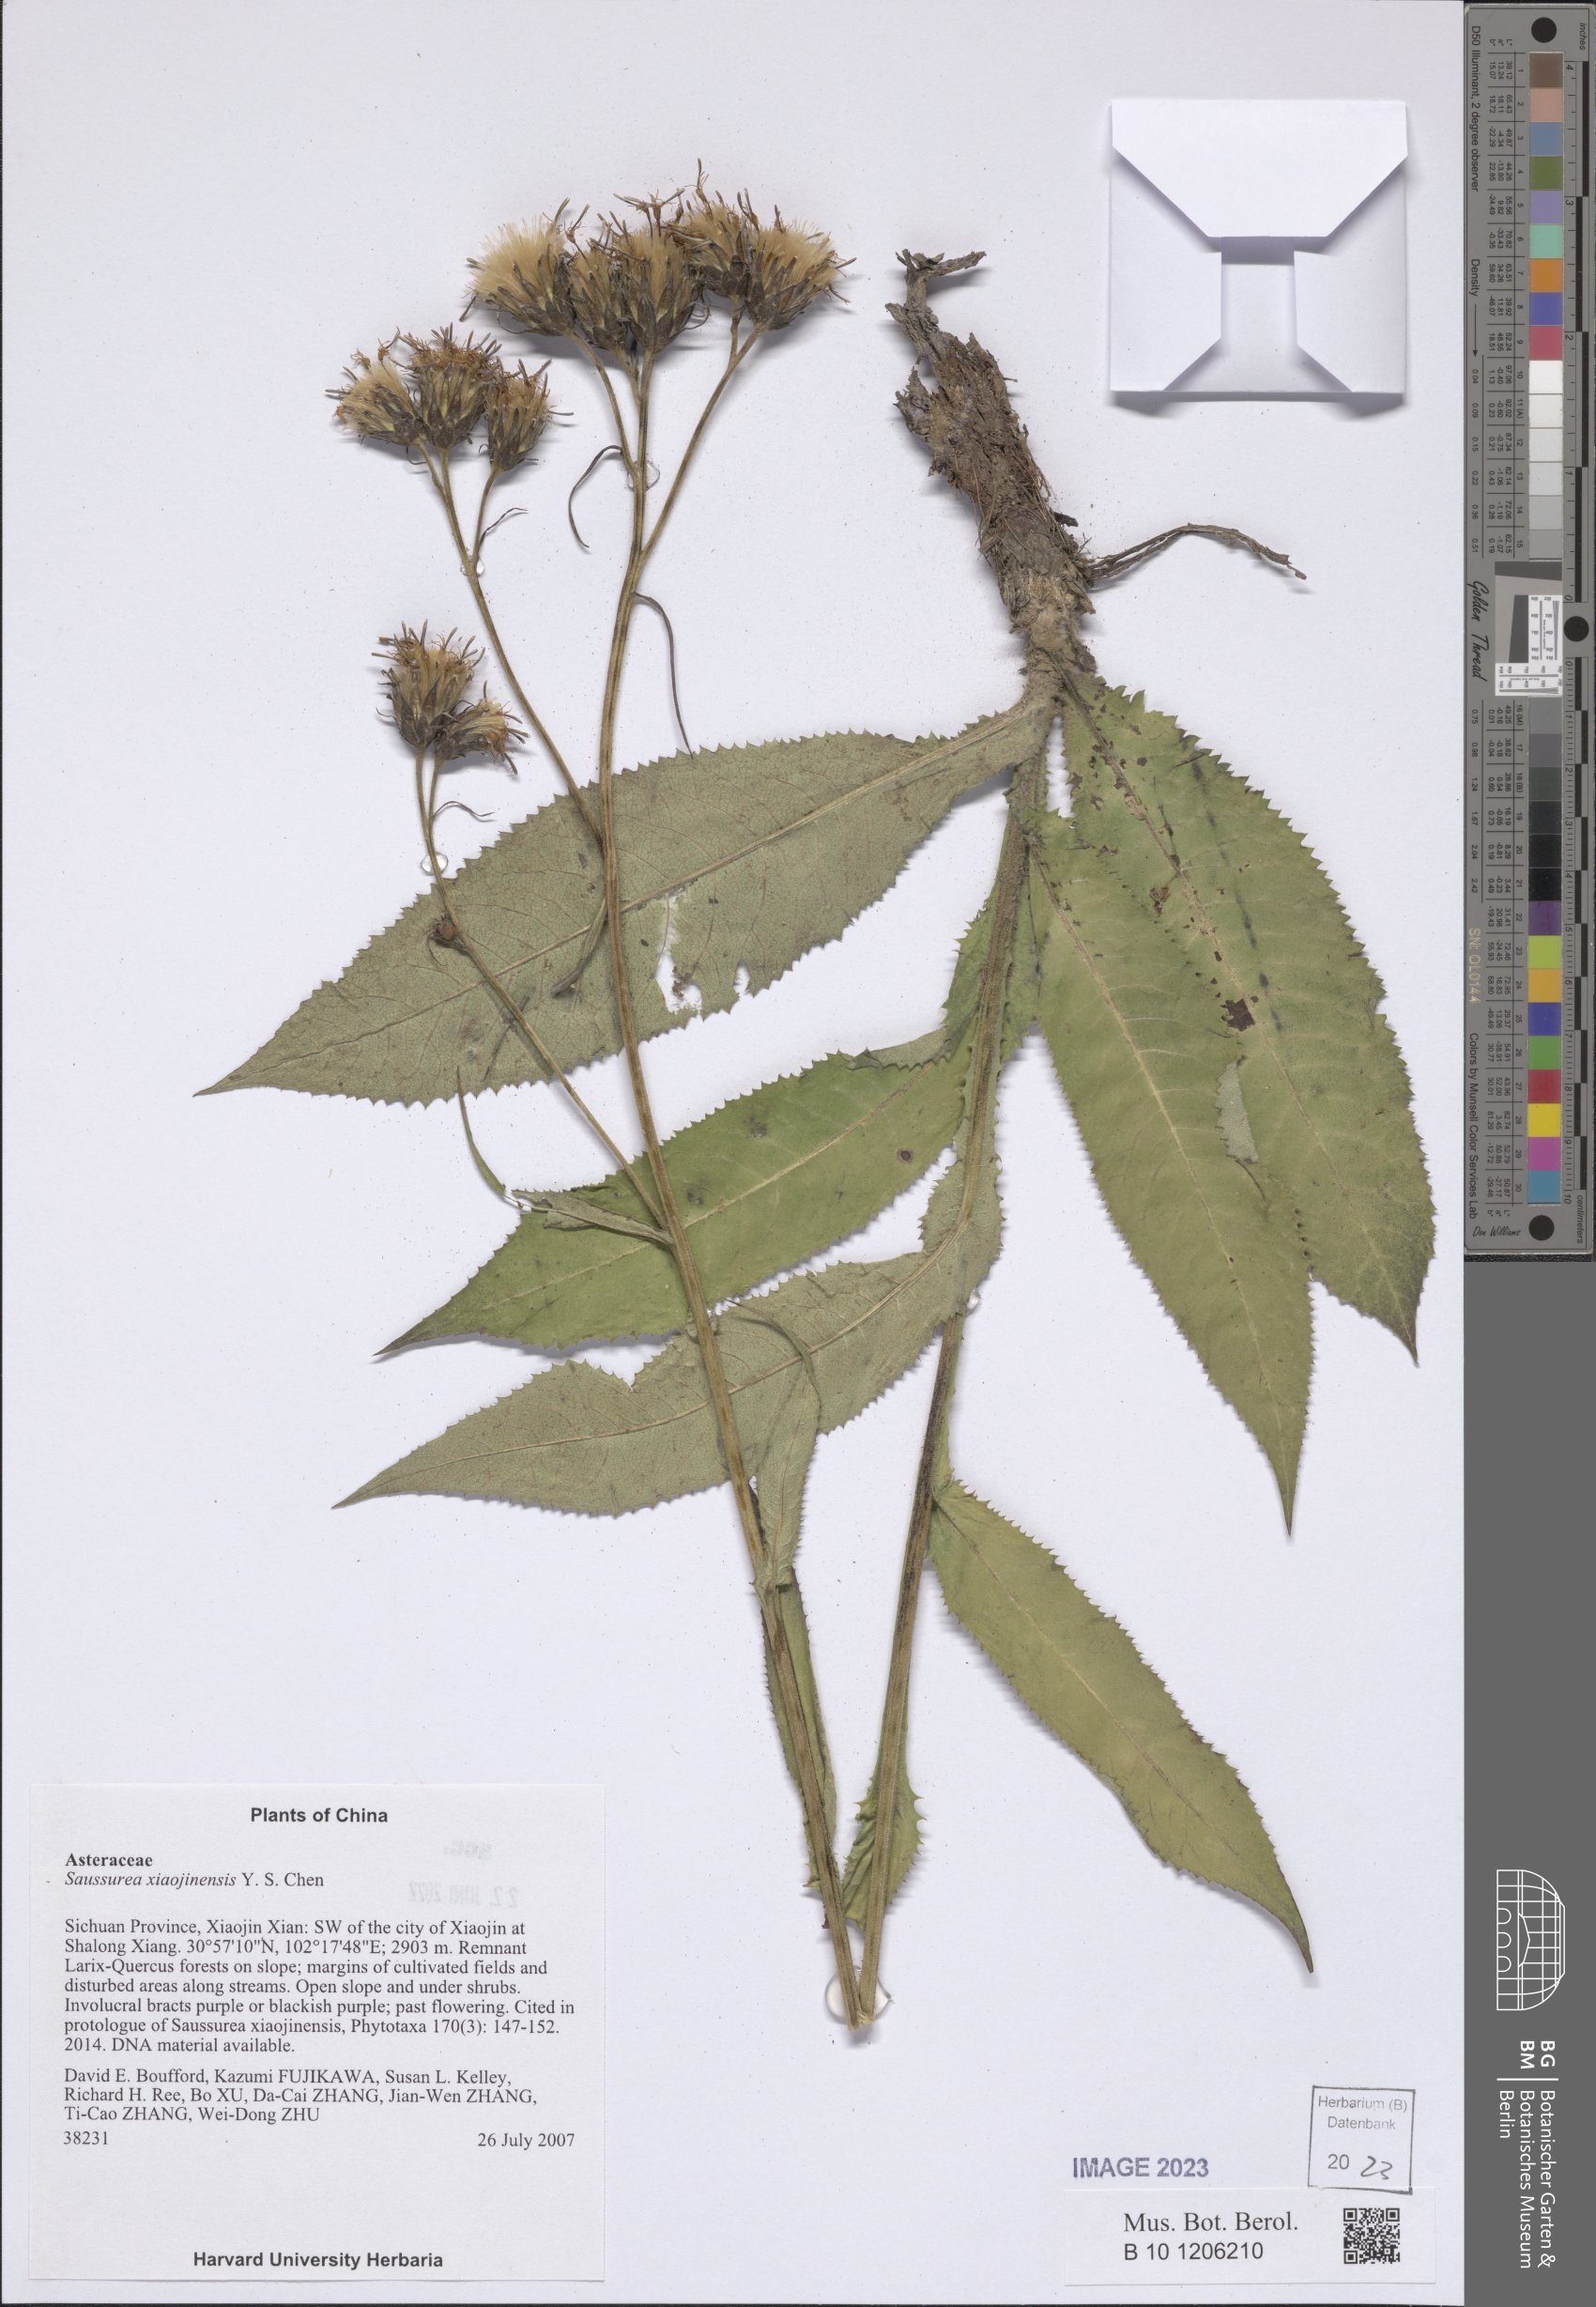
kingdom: Plantae
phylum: Tracheophyta
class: Magnoliopsida
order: Asterales
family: Asteraceae
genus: Saussurea
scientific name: Saussurea xiaojinensis
